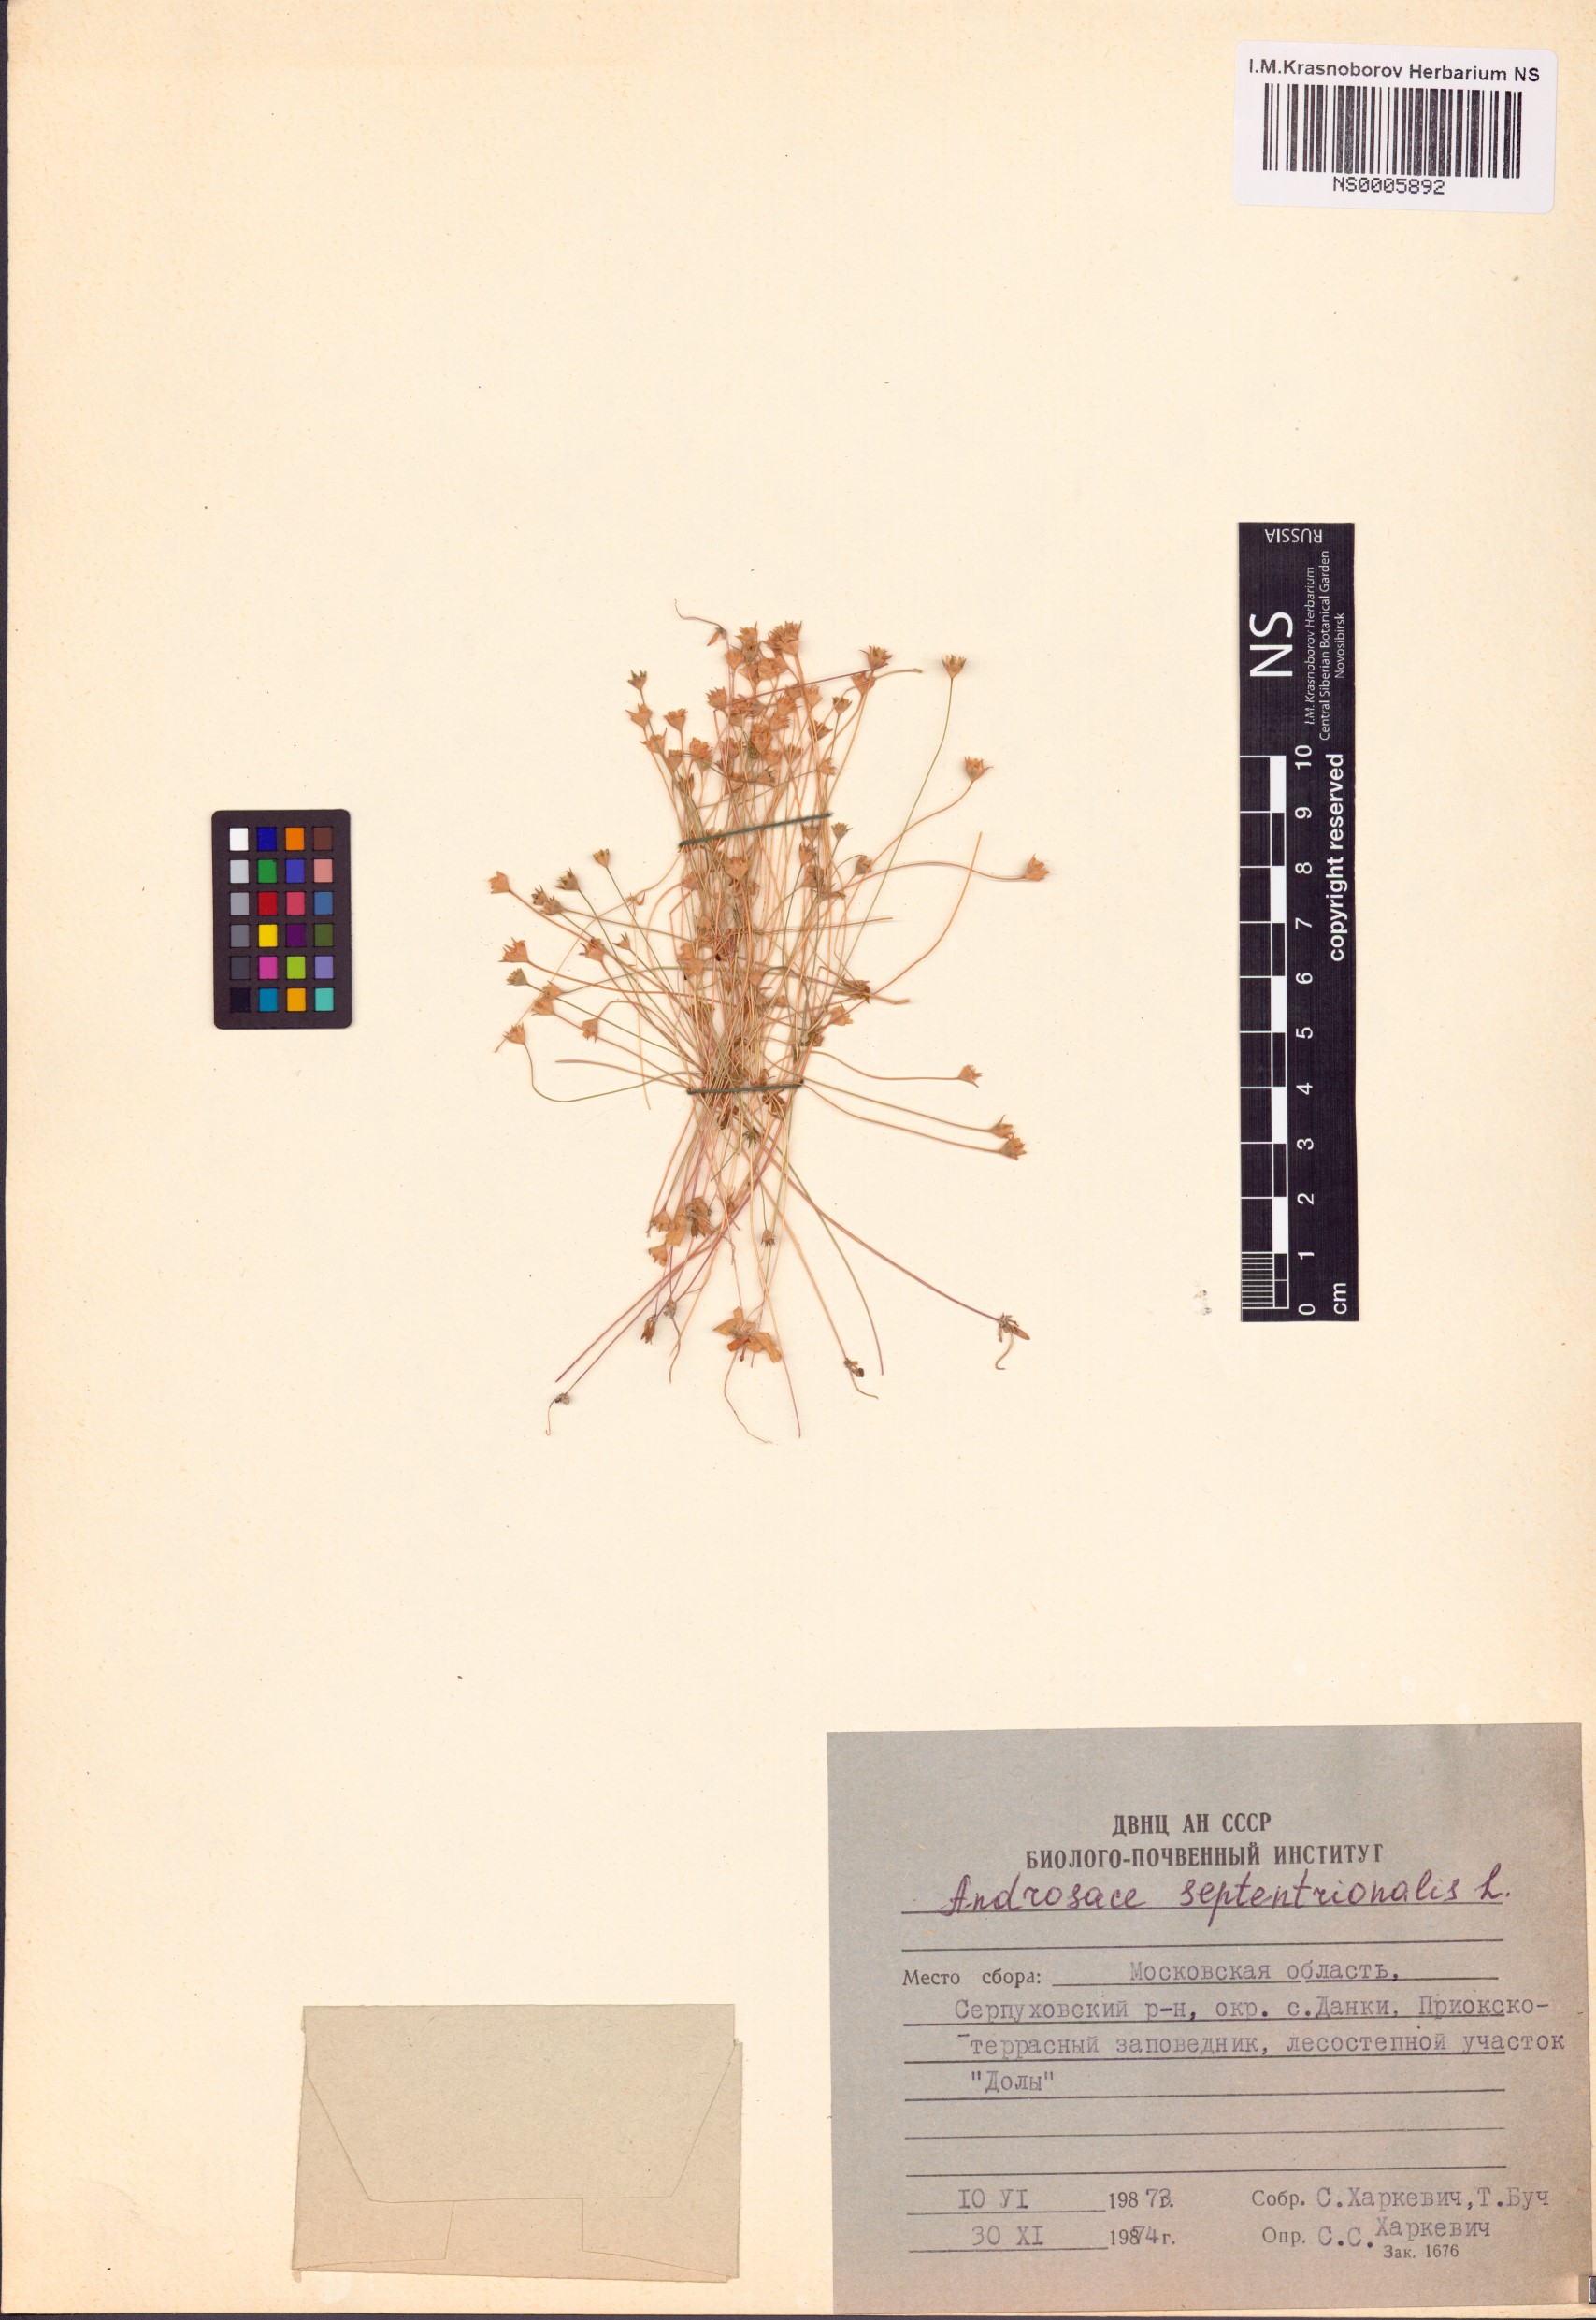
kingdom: Plantae
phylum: Tracheophyta
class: Magnoliopsida
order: Ericales
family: Primulaceae
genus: Androsace
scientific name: Androsace septentrionalis
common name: Hairy northern fairy-candelabra
